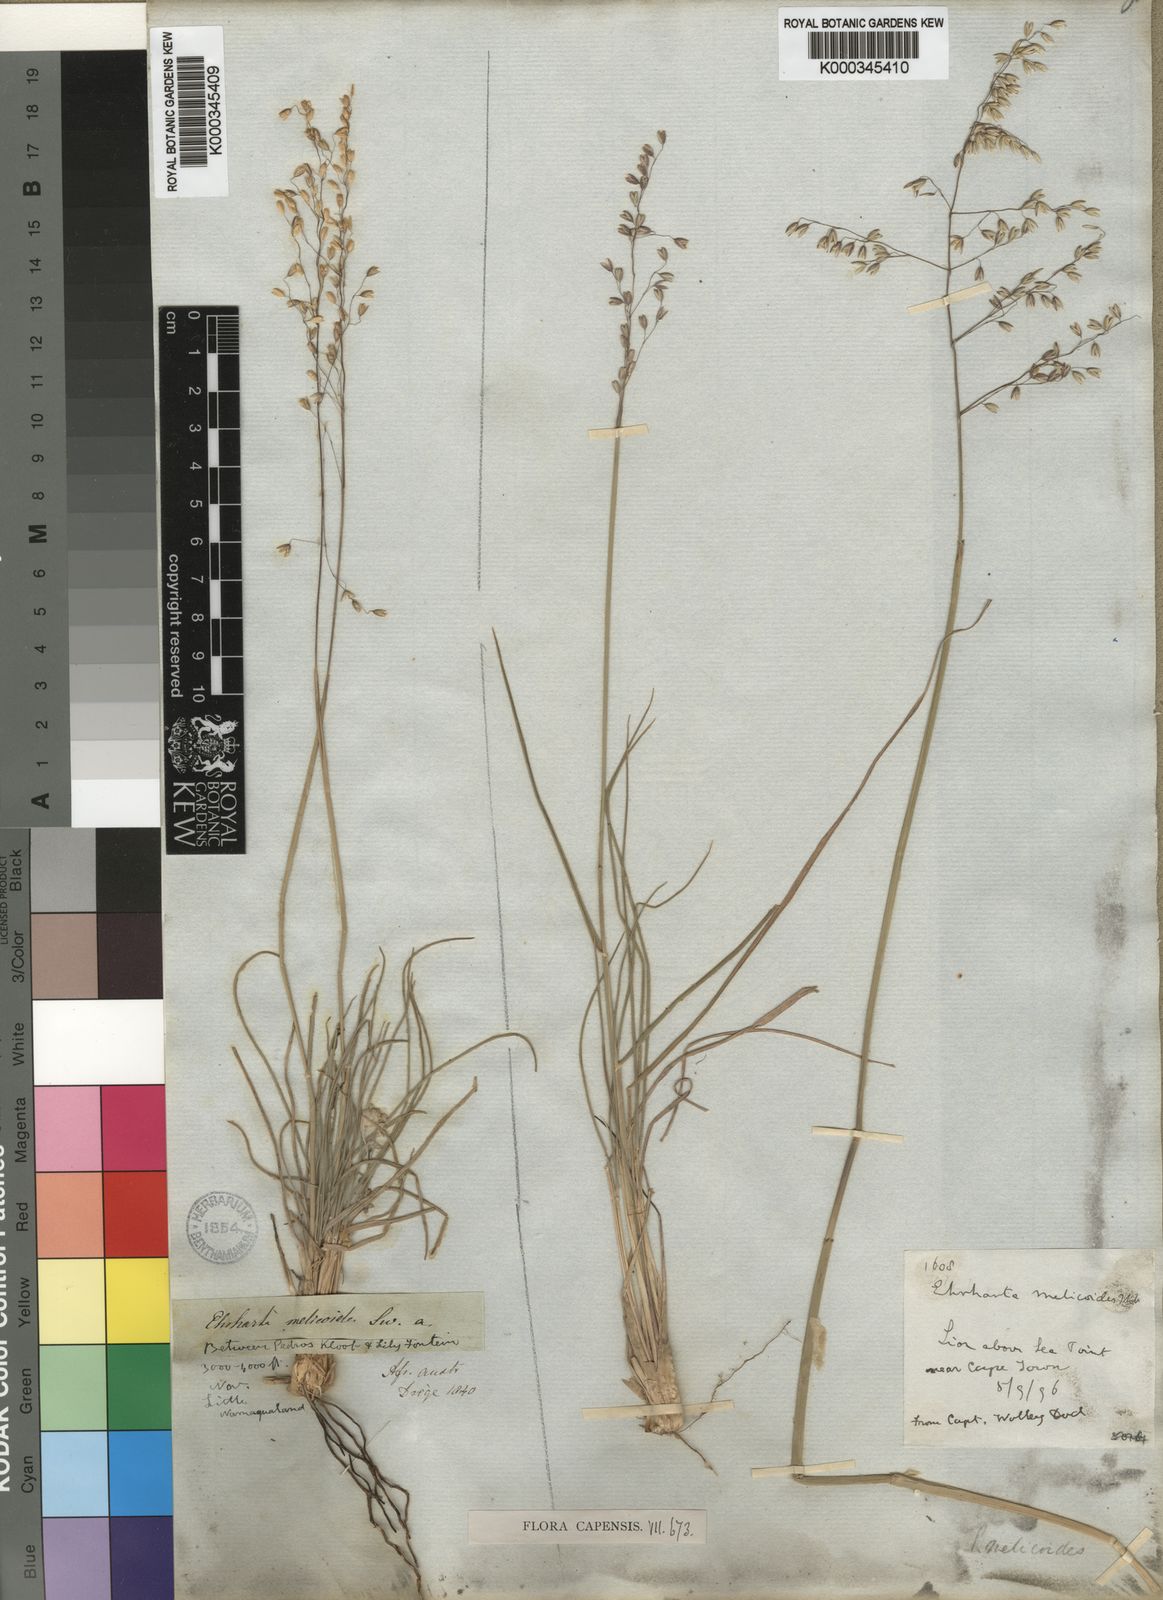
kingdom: Plantae
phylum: Tracheophyta
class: Liliopsida
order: Poales
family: Poaceae
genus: Ehrharta
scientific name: Ehrharta melicoides
